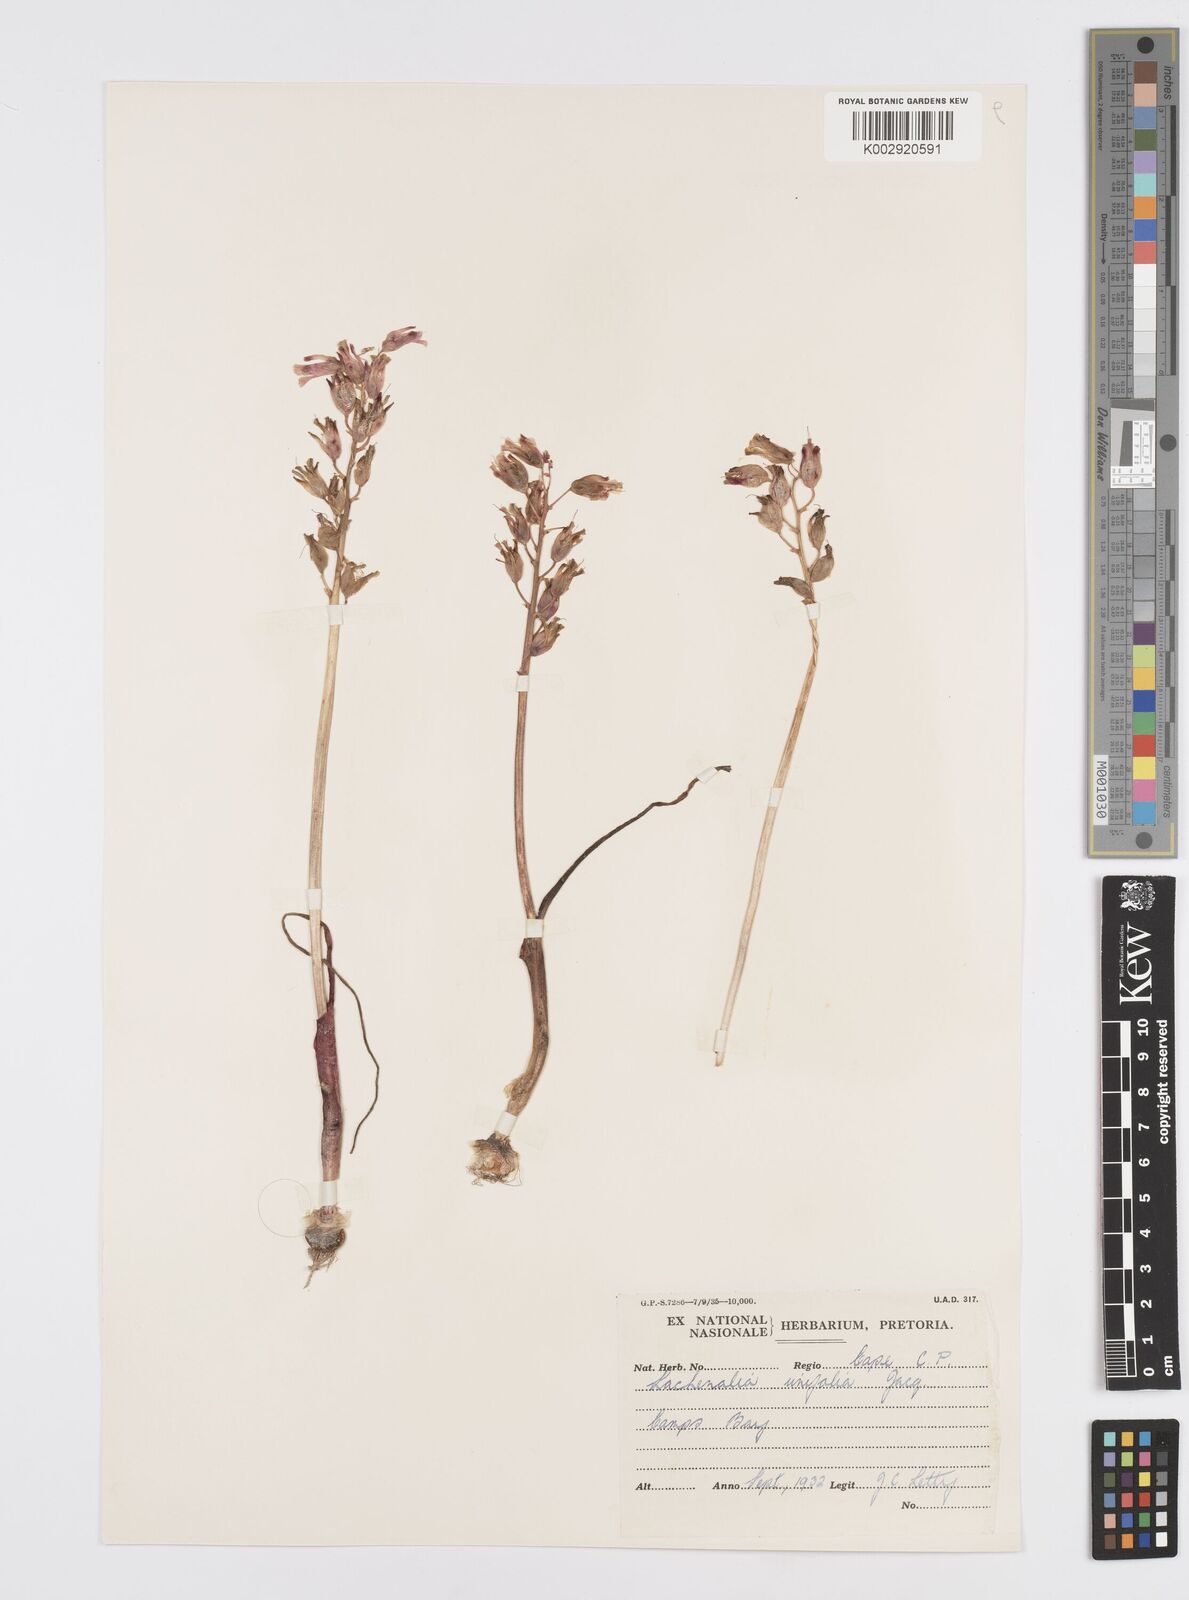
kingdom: Plantae
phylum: Tracheophyta
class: Liliopsida
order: Asparagales
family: Asparagaceae
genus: Lachenalia
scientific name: Lachenalia unifolia
